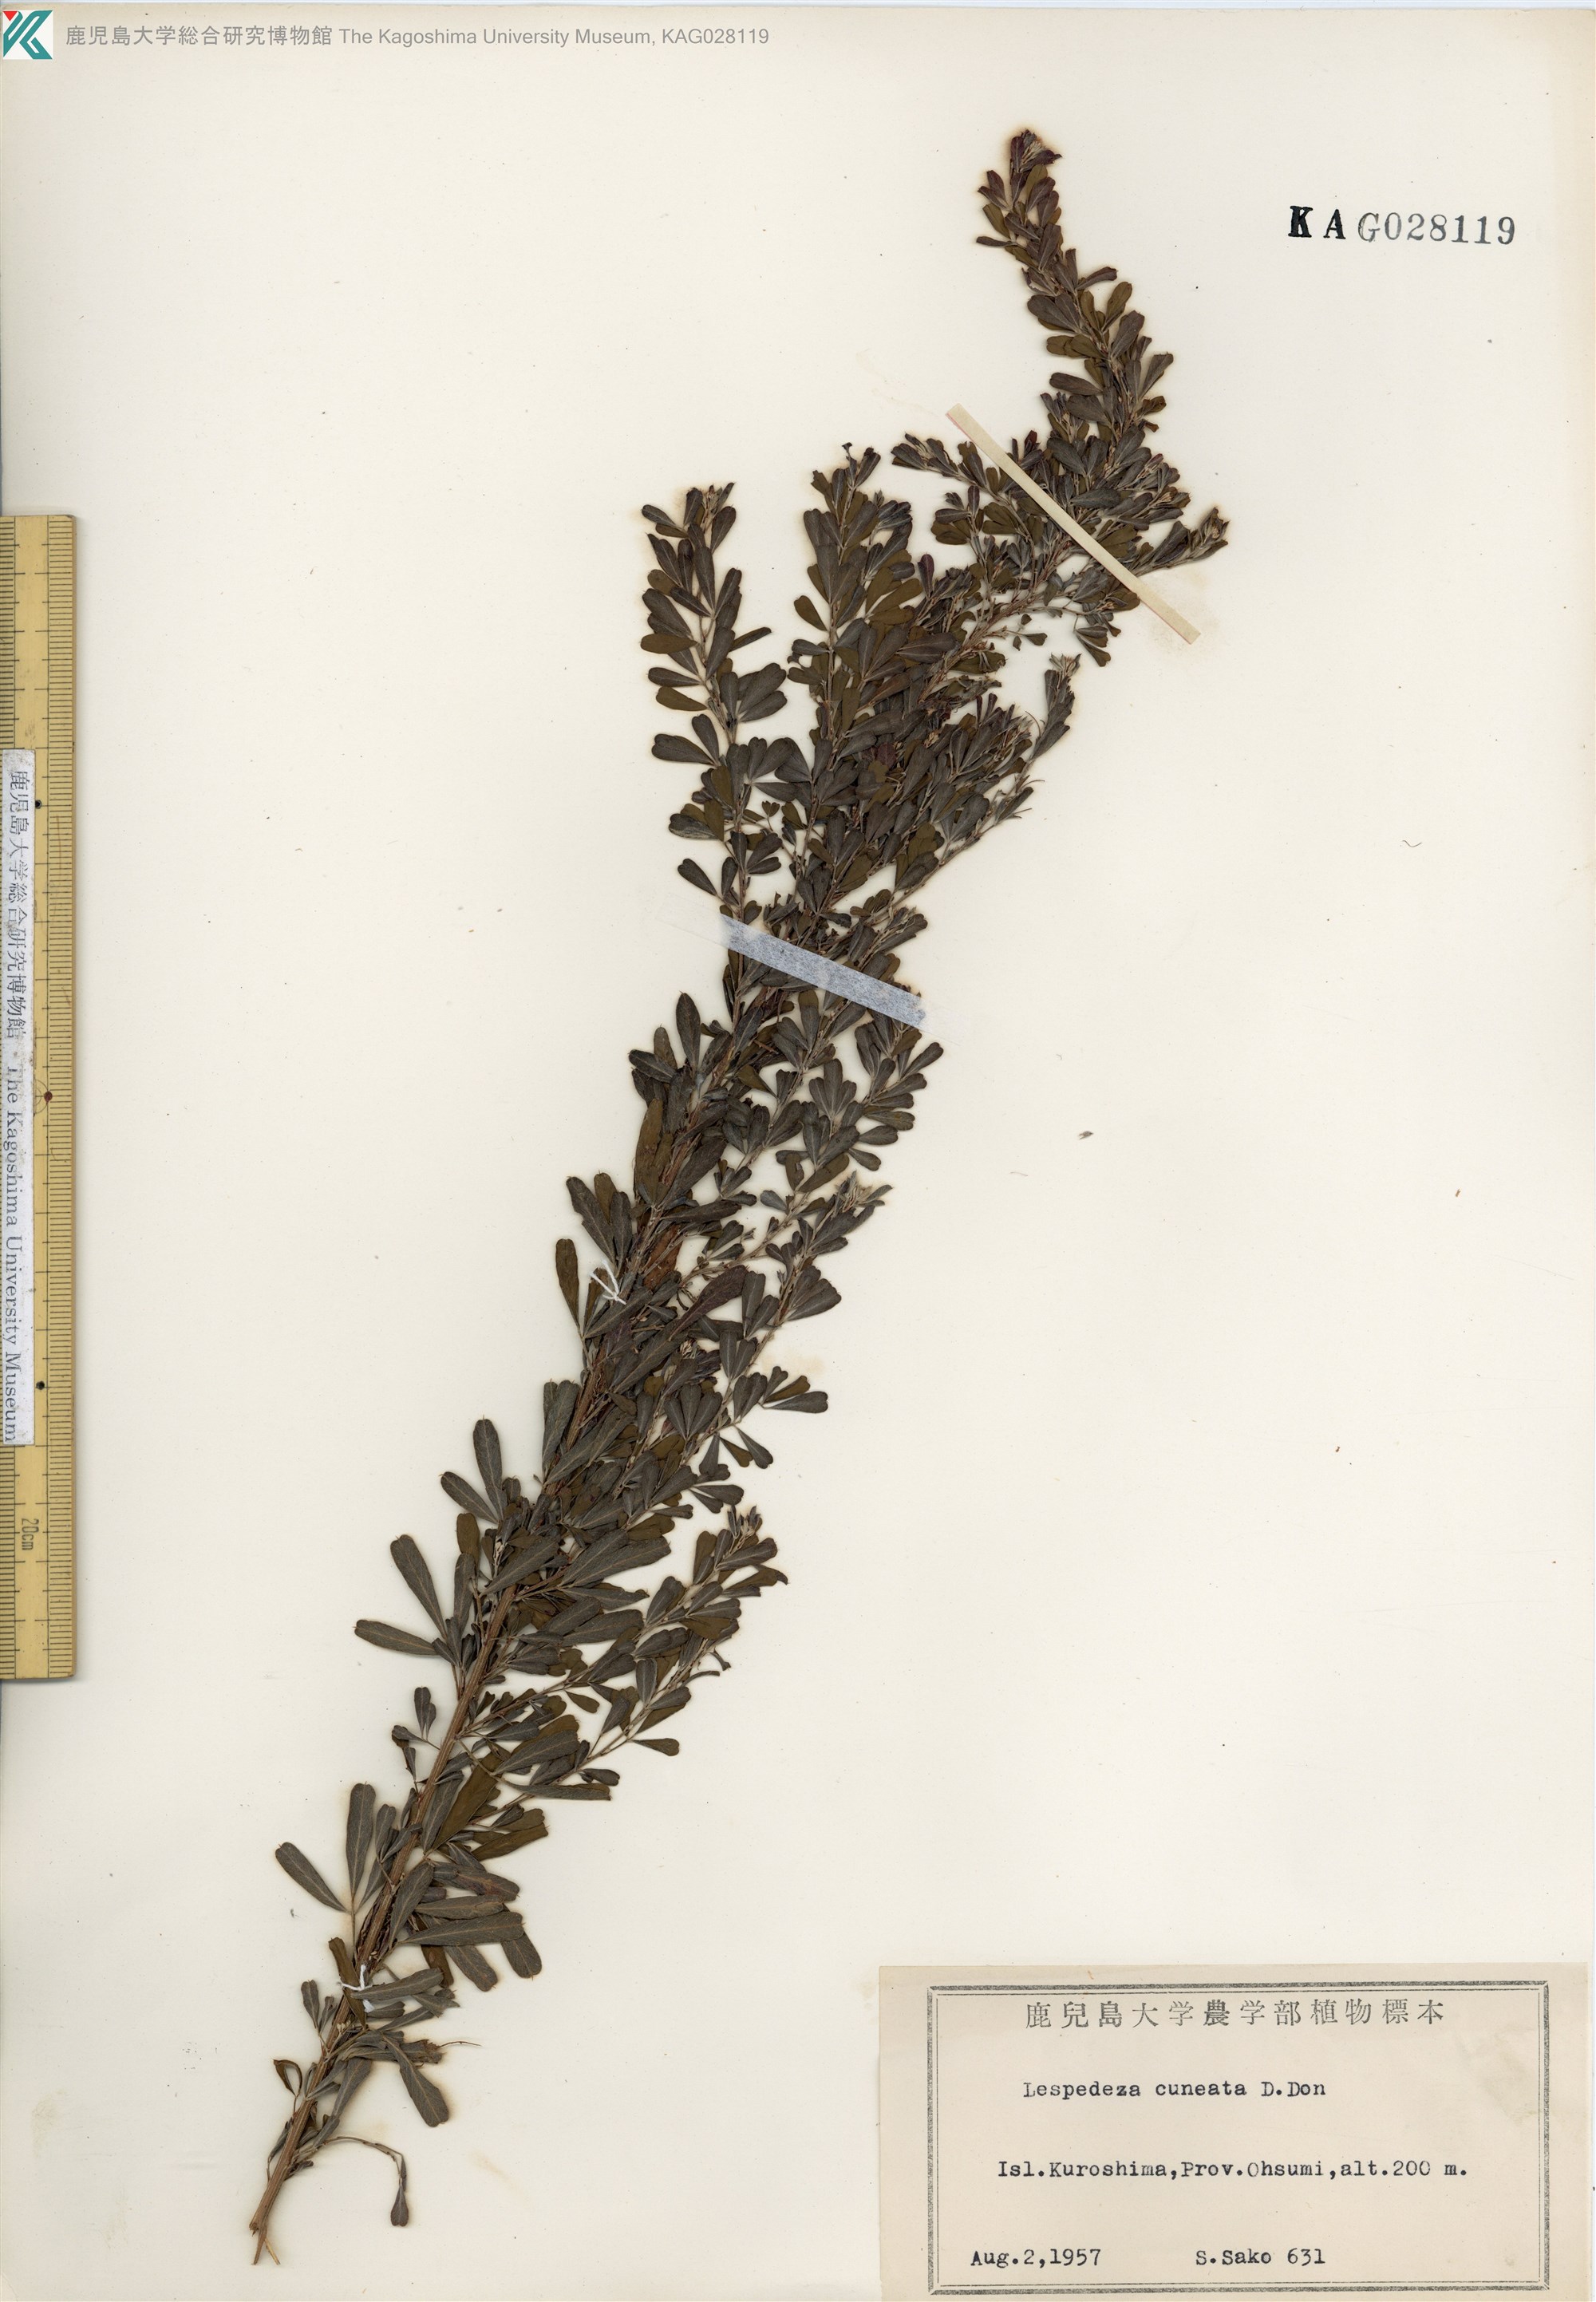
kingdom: Plantae
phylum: Tracheophyta
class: Magnoliopsida
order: Fabales
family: Fabaceae
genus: Lespedeza
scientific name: Lespedeza cuneata
